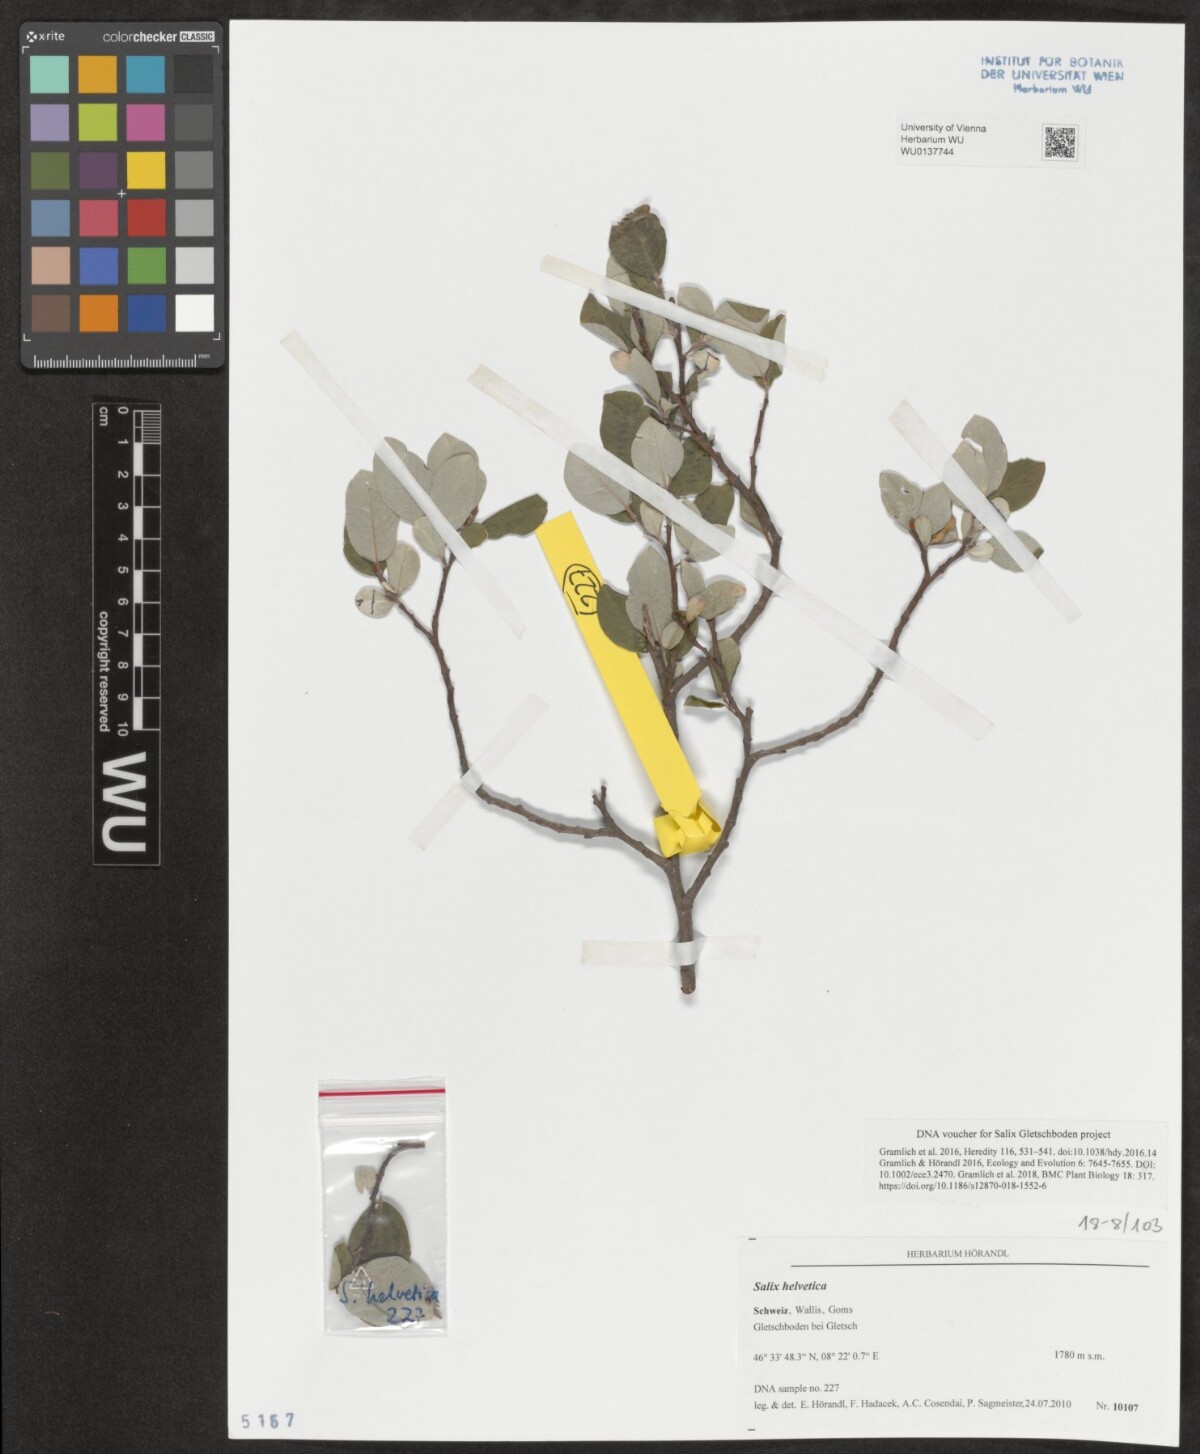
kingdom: Plantae
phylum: Tracheophyta
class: Magnoliopsida
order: Malpighiales
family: Salicaceae
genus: Salix
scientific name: Salix helvetica
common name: Swiss willow
